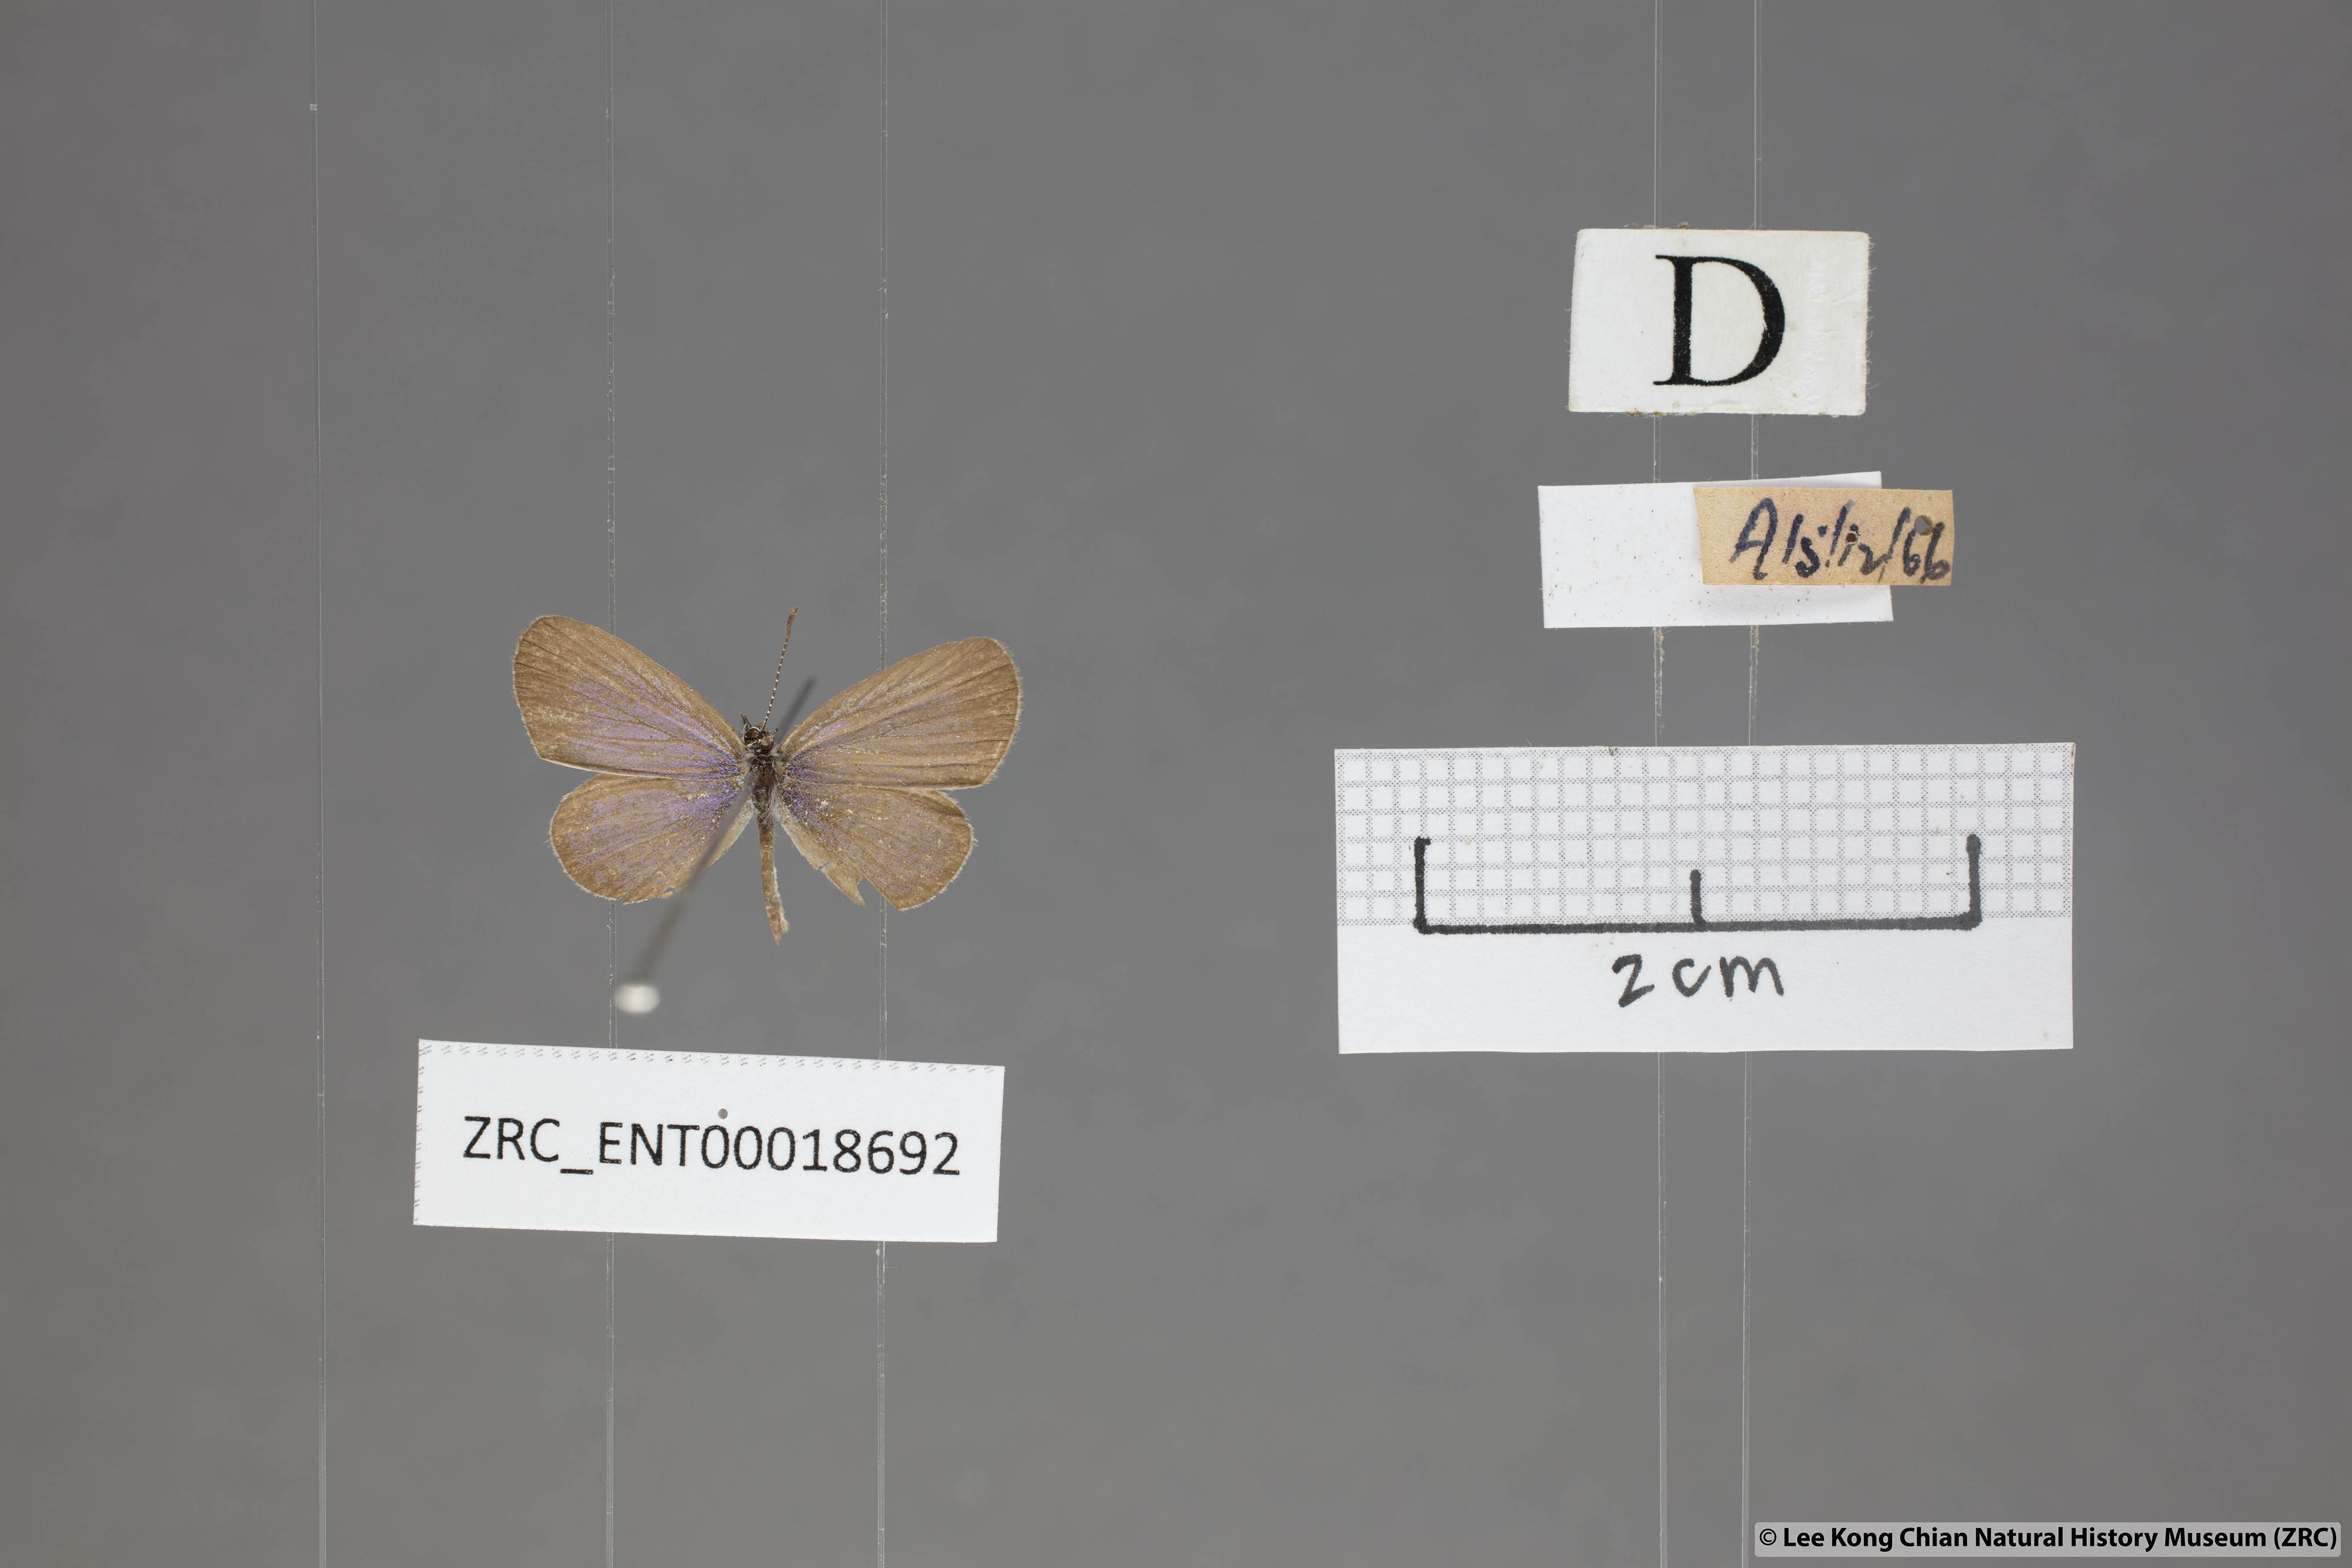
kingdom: Animalia
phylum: Arthropoda
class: Insecta
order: Lepidoptera
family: Lycaenidae
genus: Zizula
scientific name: Zizula hylax
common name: Gaika blue
